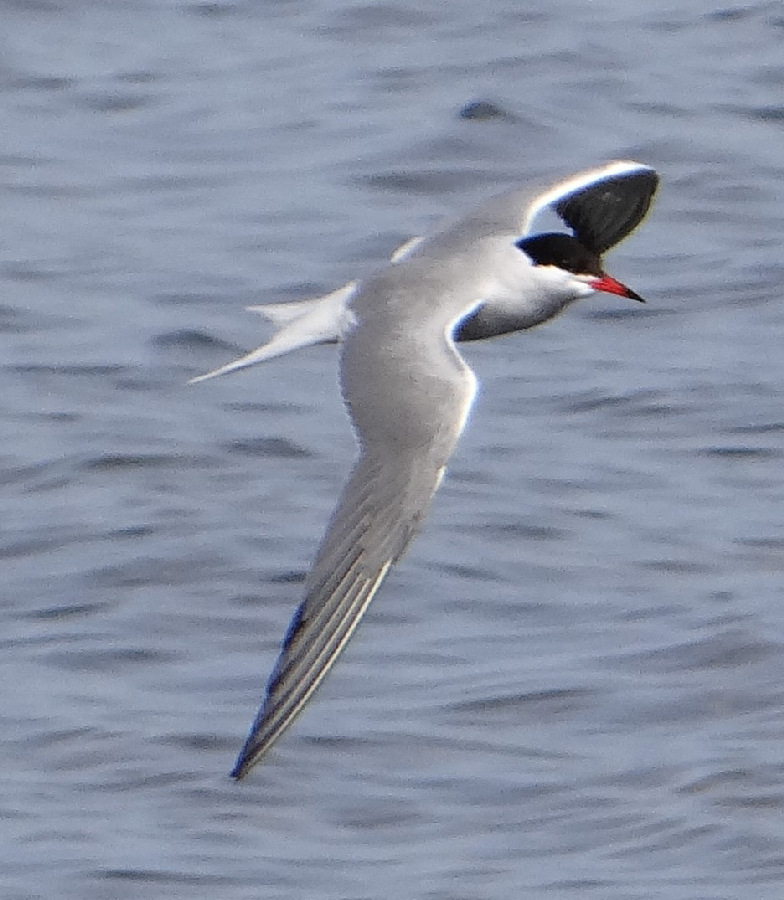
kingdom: Animalia
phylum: Chordata
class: Aves
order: Charadriiformes
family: Laridae
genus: Sterna
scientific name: Sterna hirundo
